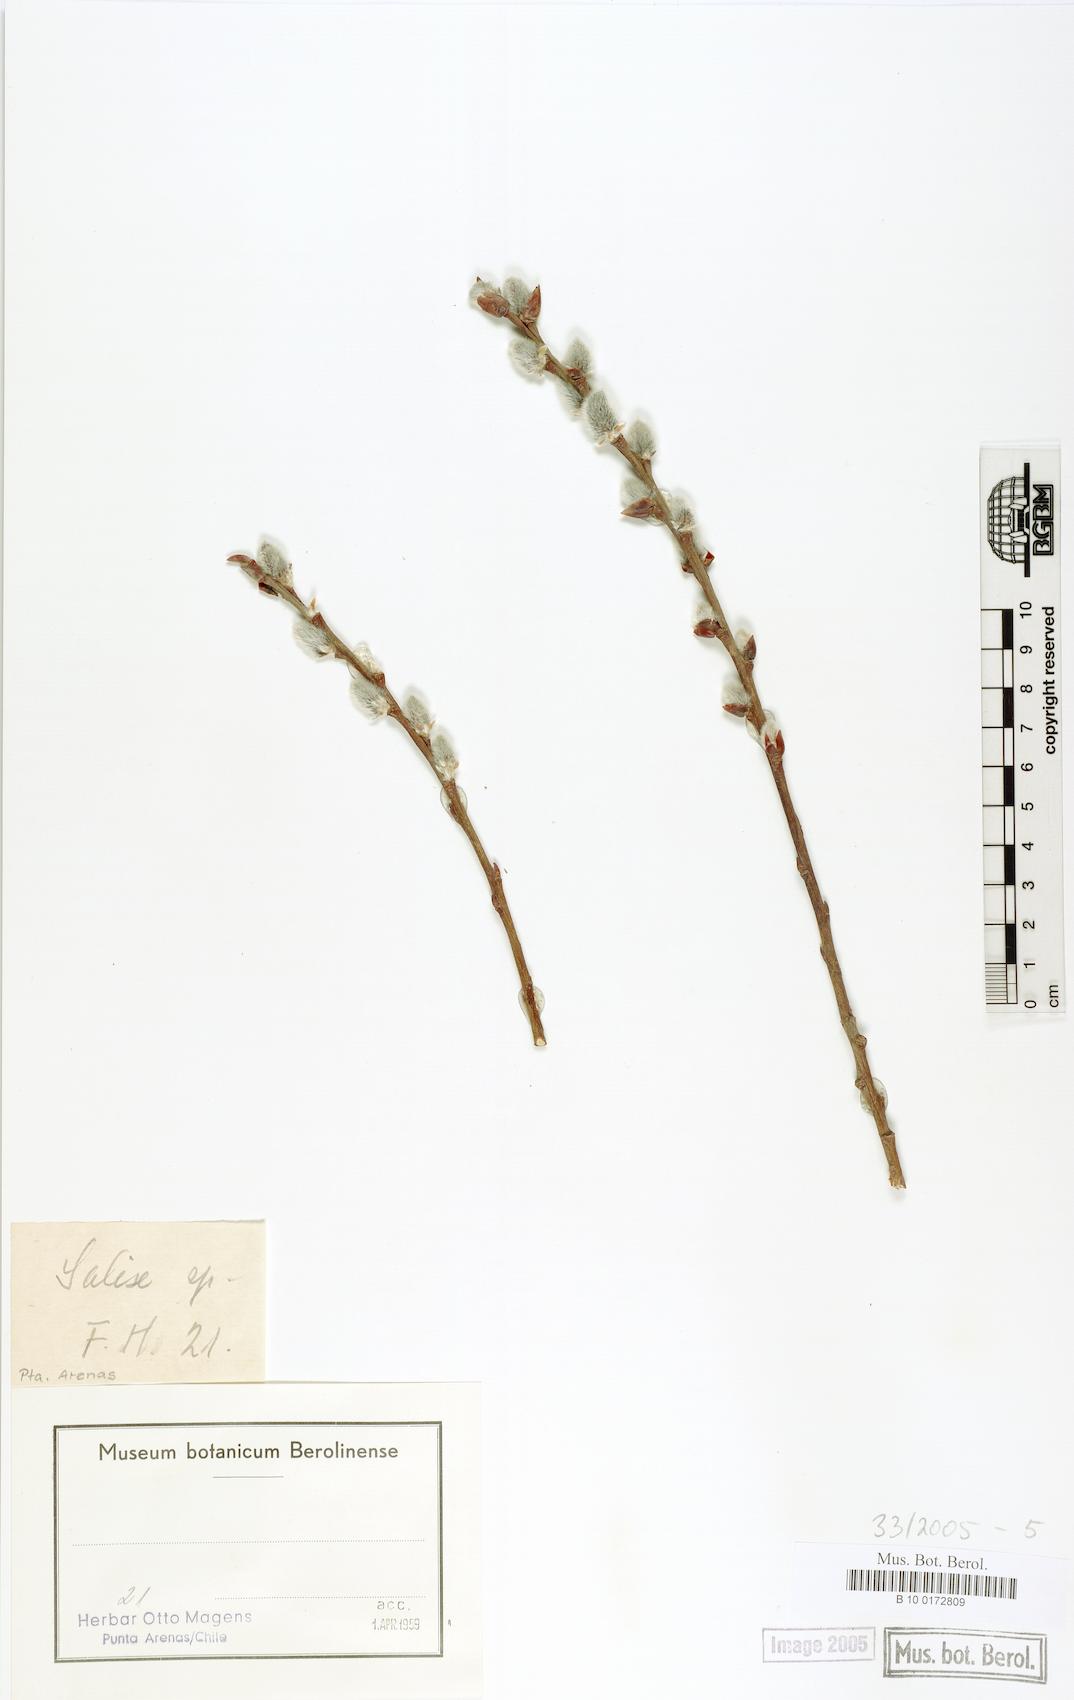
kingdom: Plantae
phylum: Tracheophyta
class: Magnoliopsida
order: Malpighiales
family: Salicaceae
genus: Salix
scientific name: Salix
